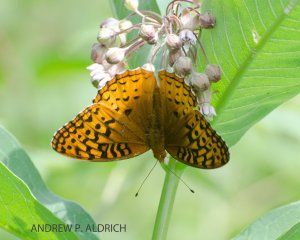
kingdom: Animalia
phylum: Arthropoda
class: Insecta
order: Lepidoptera
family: Nymphalidae
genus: Speyeria
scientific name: Speyeria cybele
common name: Great Spangled Fritillary
